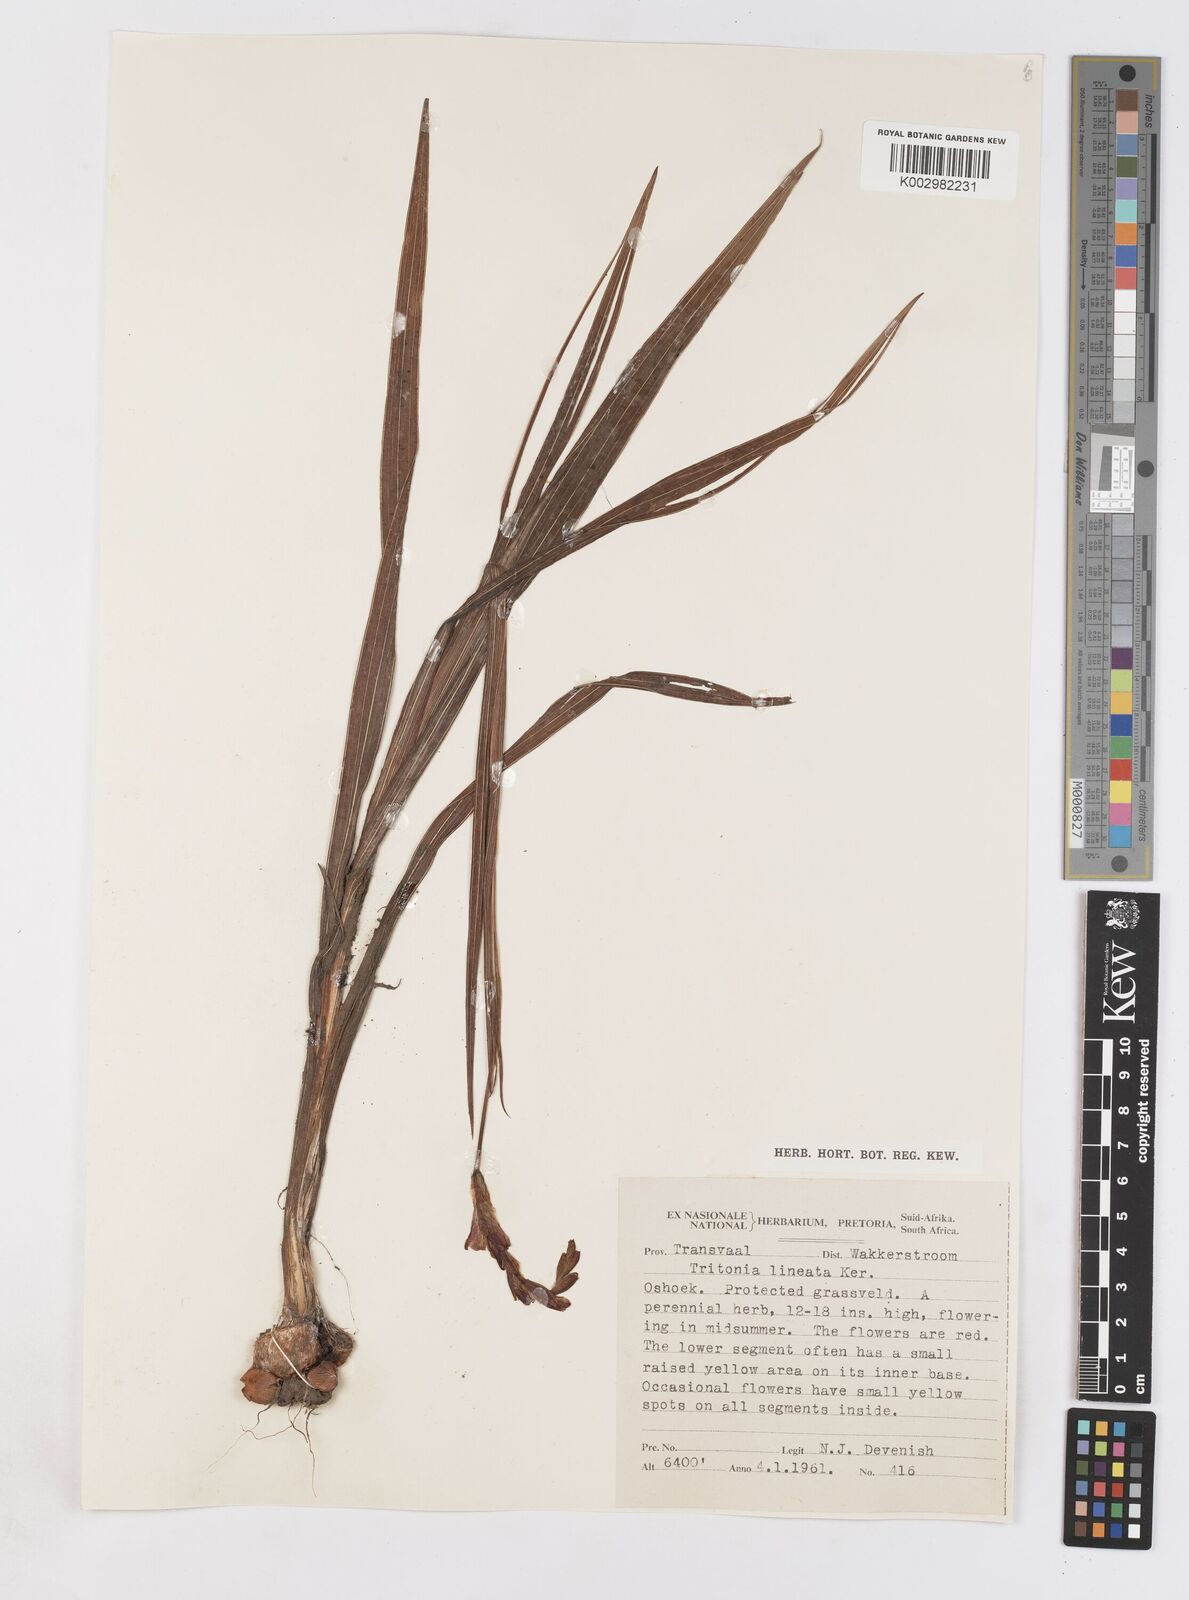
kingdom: Plantae
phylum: Tracheophyta
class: Liliopsida
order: Asparagales
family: Iridaceae
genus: Tritonia
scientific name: Tritonia gladiolaris
